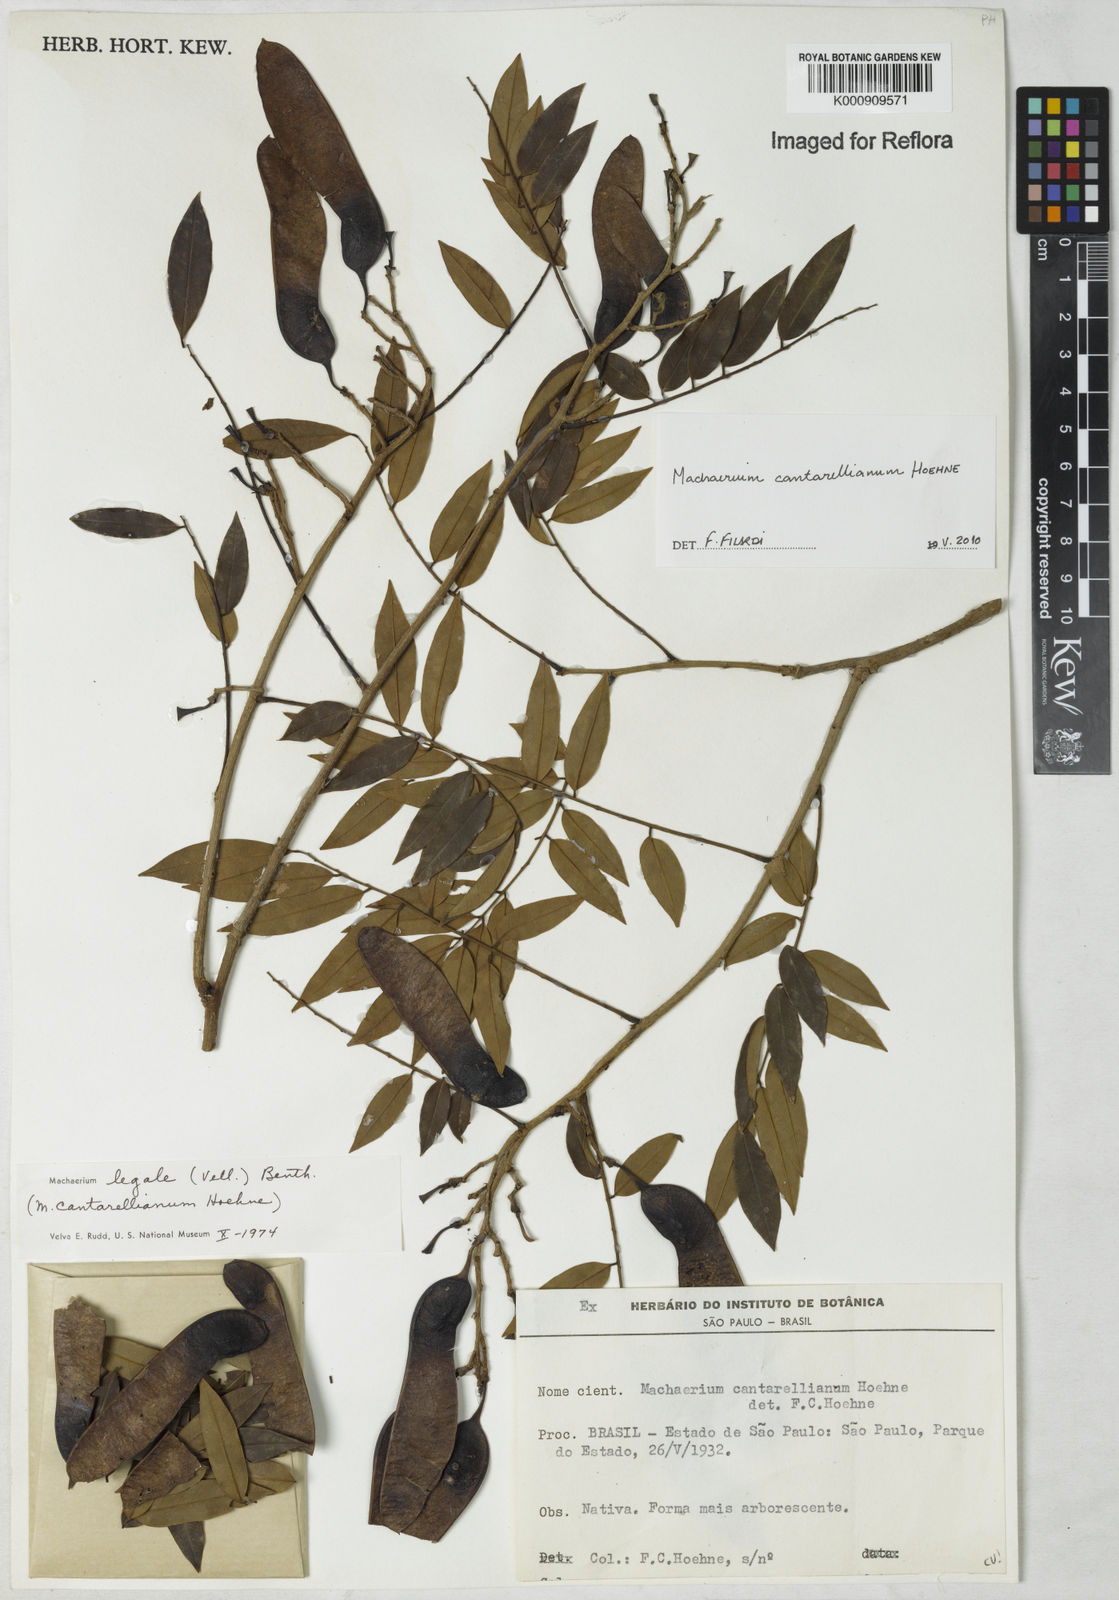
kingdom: Plantae
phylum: Tracheophyta
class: Magnoliopsida
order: Fabales
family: Fabaceae
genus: Machaerium
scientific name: Machaerium cantarellianum
